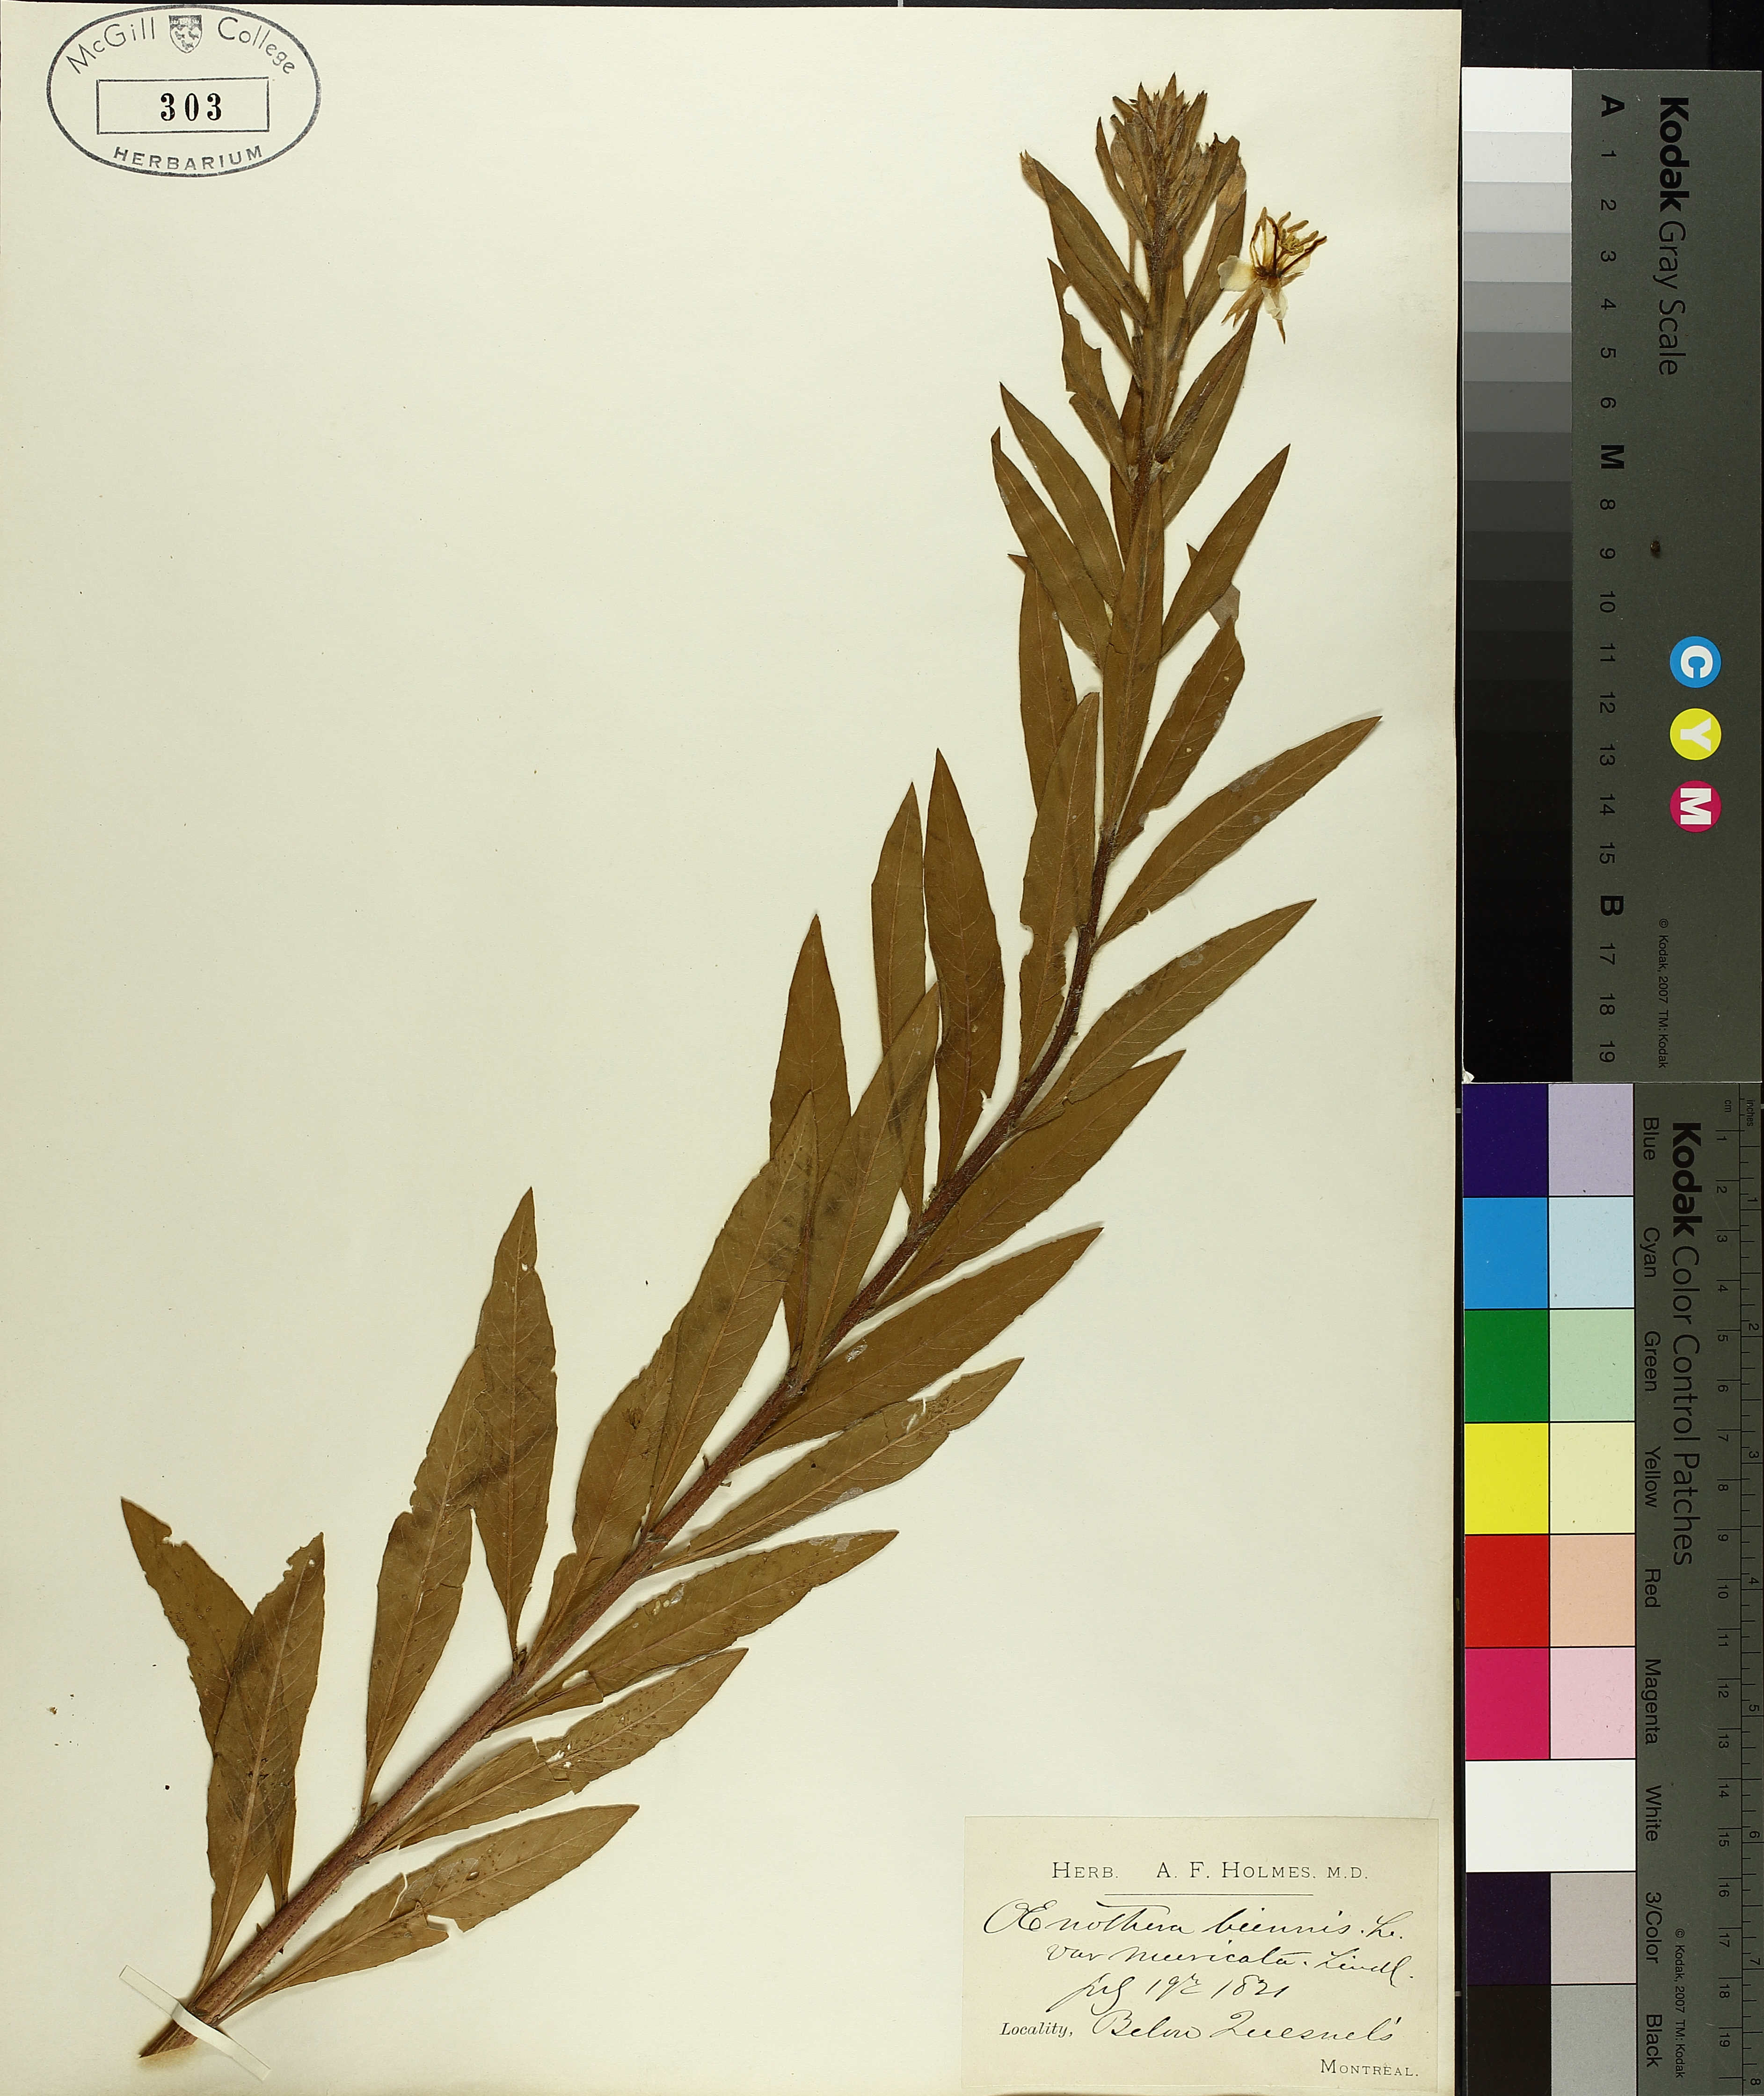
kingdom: Plantae
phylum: Tracheophyta
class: Liliopsida
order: Poales
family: Cyperaceae
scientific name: Cyperaceae
